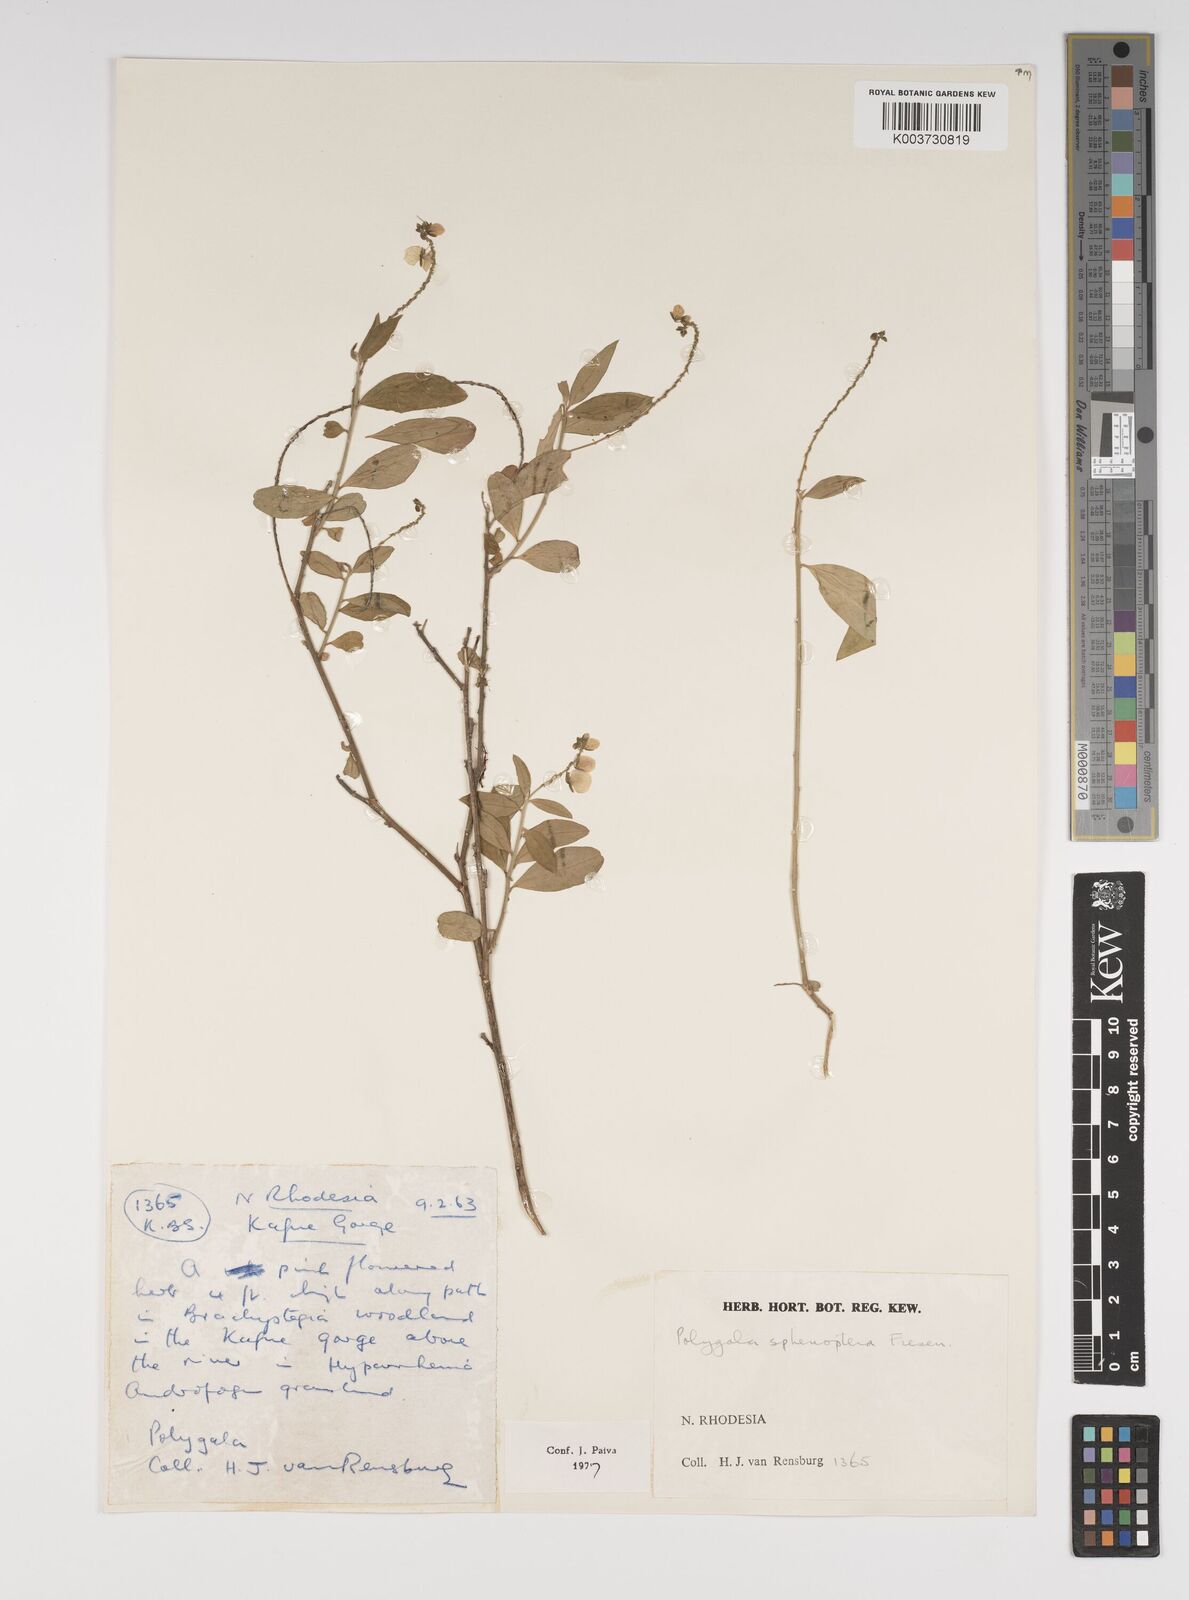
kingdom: Plantae
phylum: Tracheophyta
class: Magnoliopsida
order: Fabales
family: Polygalaceae
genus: Polygala
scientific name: Polygala sphenoptera
